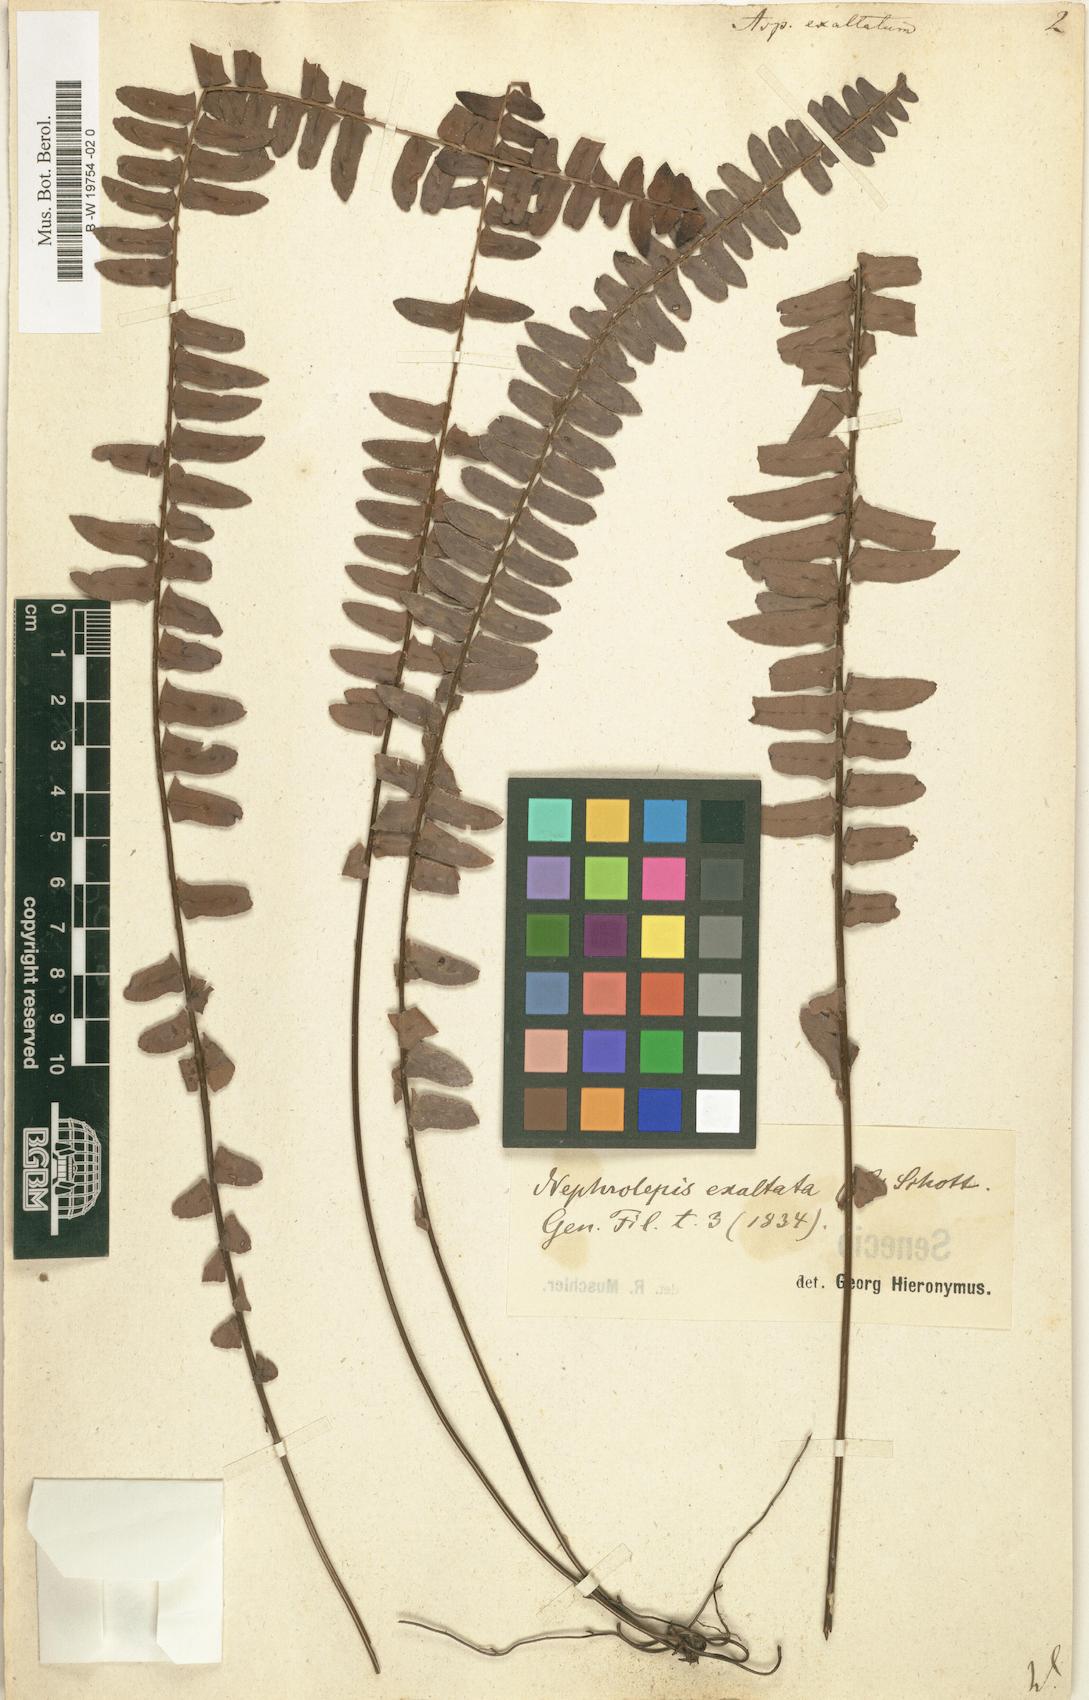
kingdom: Plantae
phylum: Tracheophyta
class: Polypodiopsida
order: Polypodiales
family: Nephrolepidaceae
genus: Nephrolepis
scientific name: Nephrolepis exaltata
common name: Sword fern
